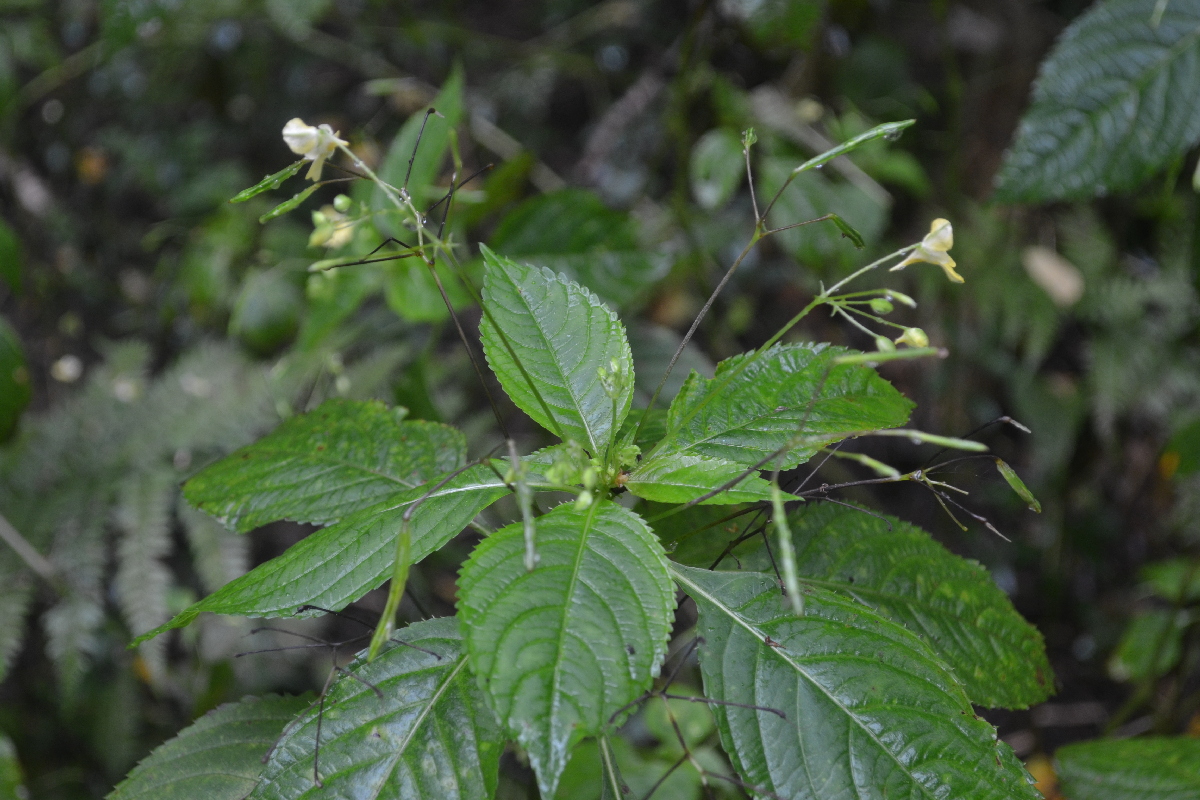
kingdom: Plantae
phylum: Tracheophyta
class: Magnoliopsida
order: Ericales
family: Balsaminaceae
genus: Impatiens
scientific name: Impatiens parviflora
